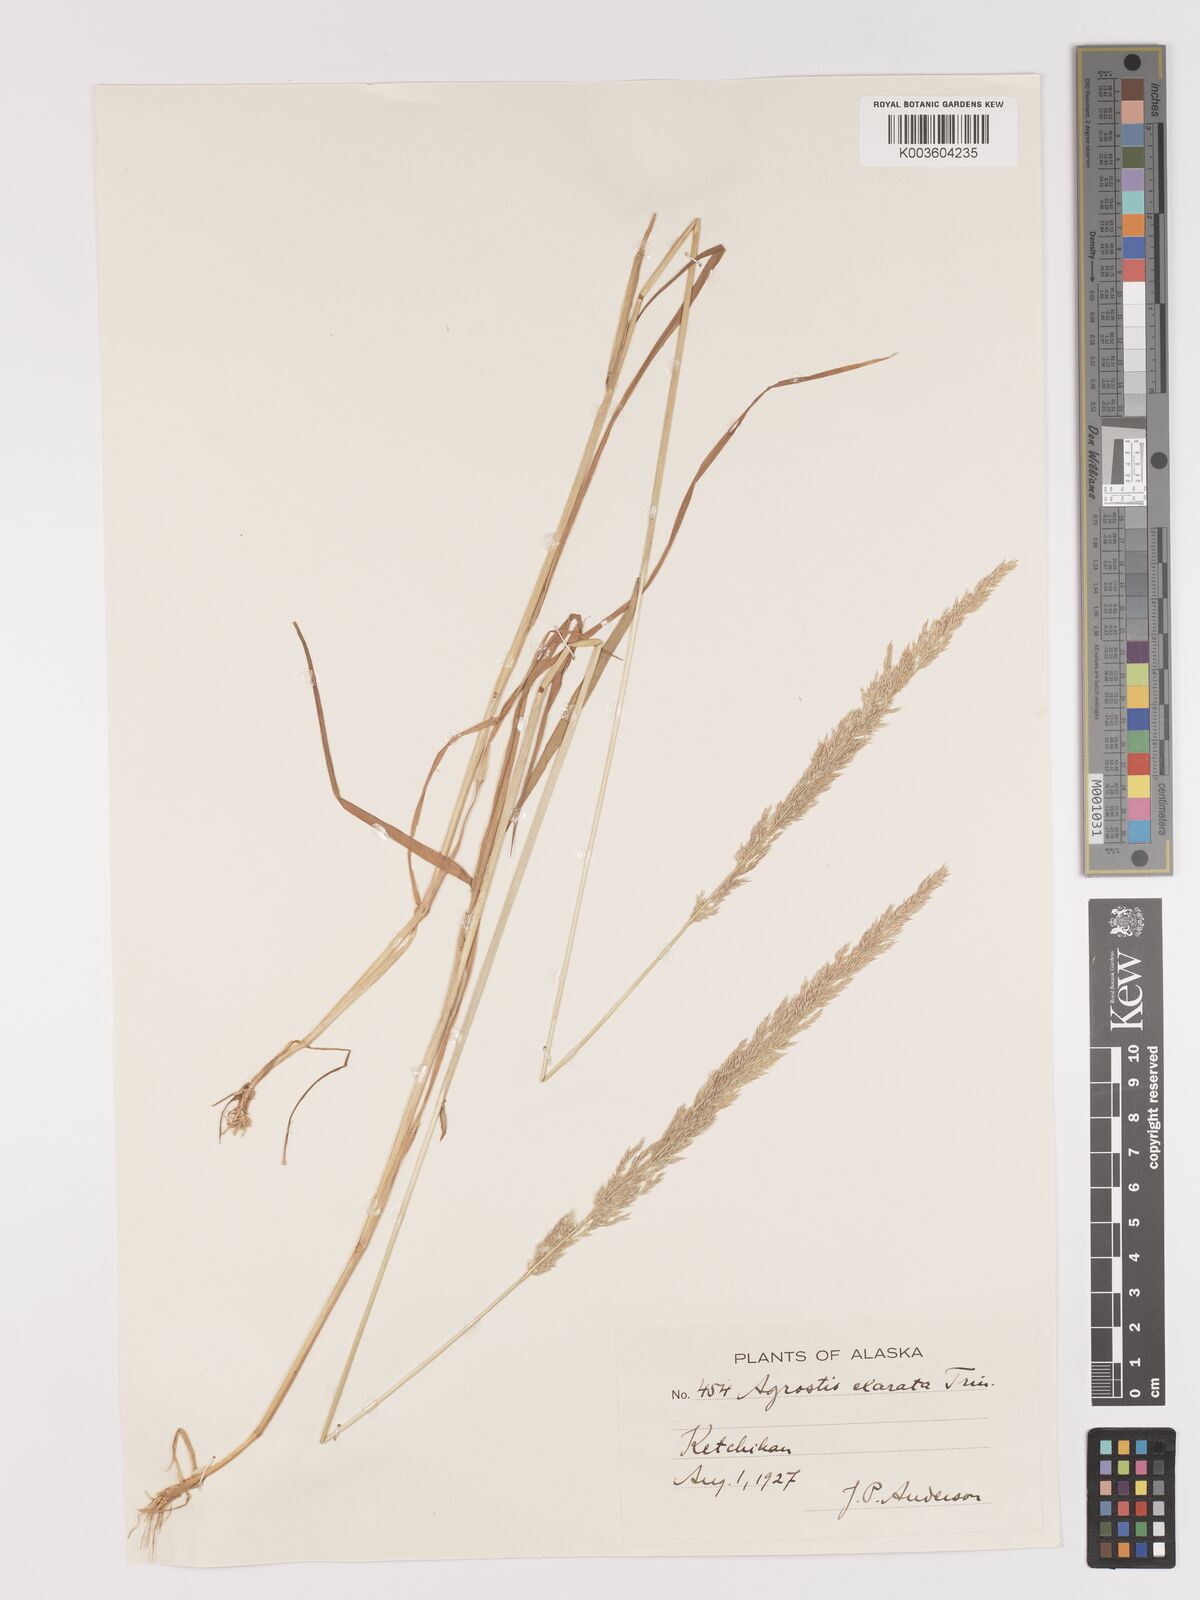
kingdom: Plantae
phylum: Tracheophyta
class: Liliopsida
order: Poales
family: Poaceae
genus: Agrostis
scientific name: Agrostis exarata
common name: Spike bent
